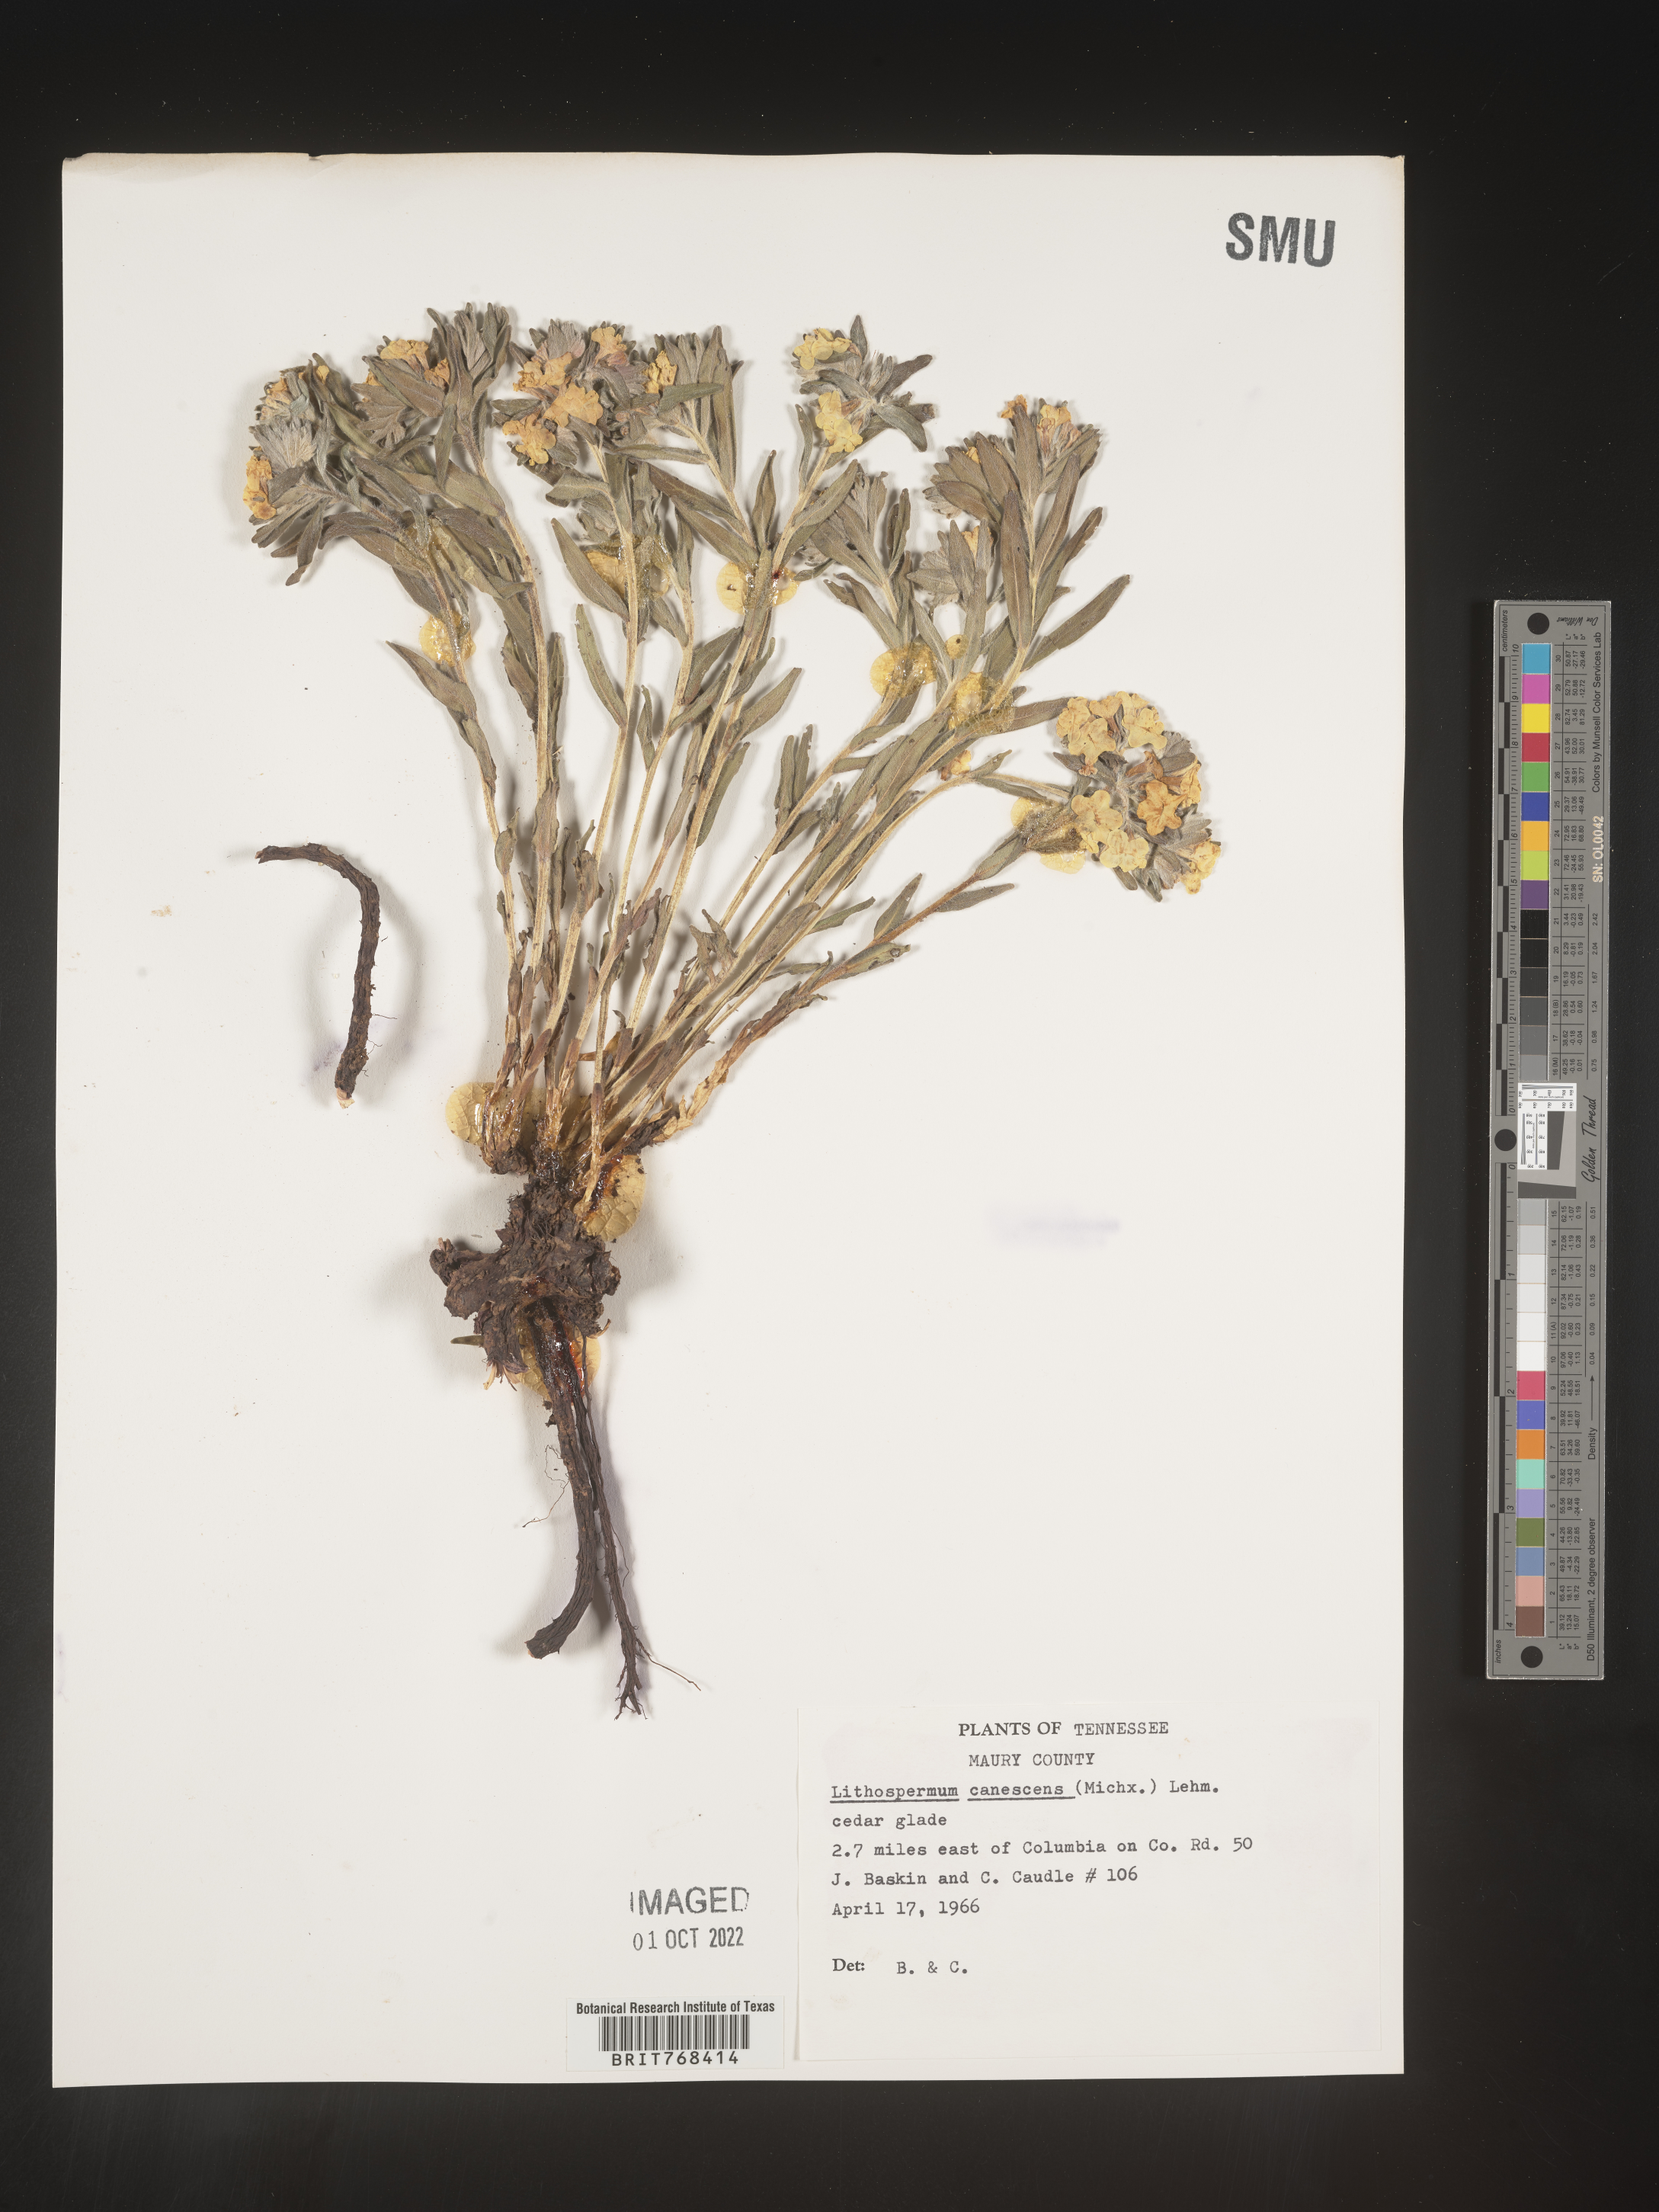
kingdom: Plantae
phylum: Tracheophyta
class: Magnoliopsida
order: Boraginales
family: Boraginaceae
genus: Lithospermum
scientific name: Lithospermum canescens
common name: Hoary puccoon
